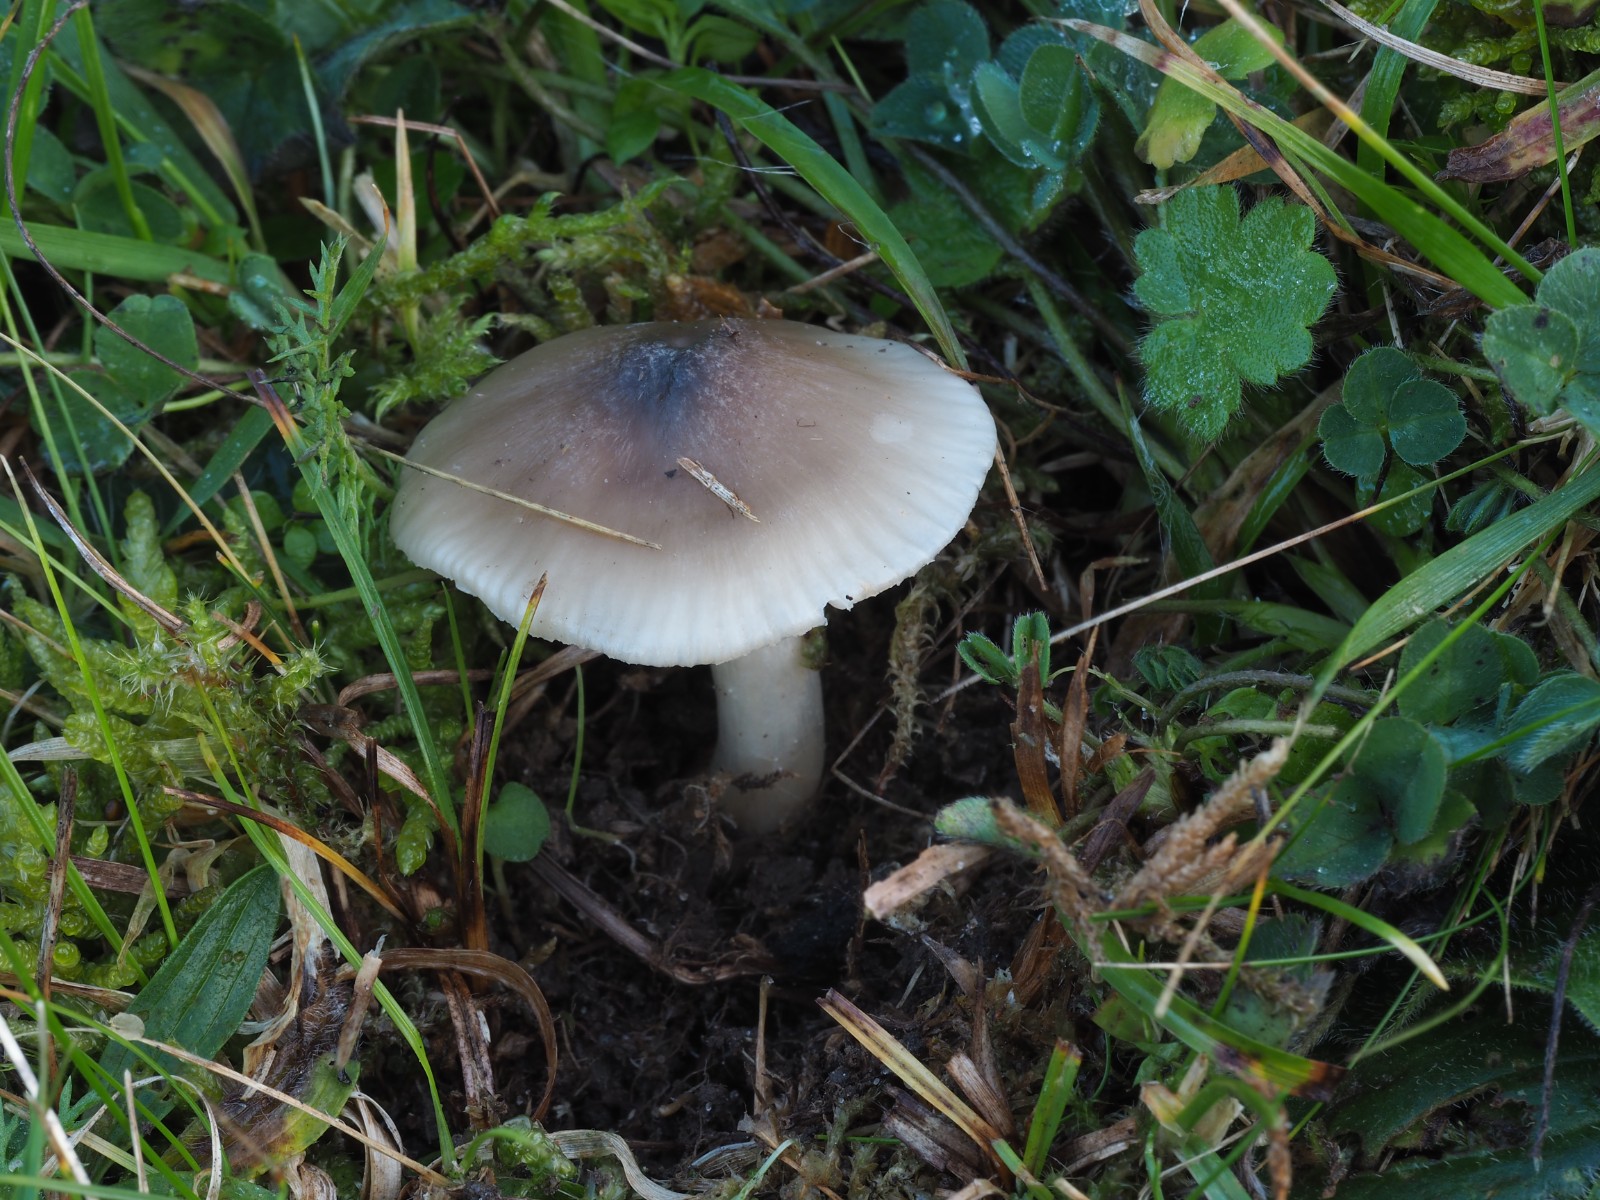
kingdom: Fungi
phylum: Basidiomycota
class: Agaricomycetes
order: Agaricales
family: Hygrophoraceae
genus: Cuphophyllus
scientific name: Cuphophyllus fornicatus
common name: gråbrun vokshat
